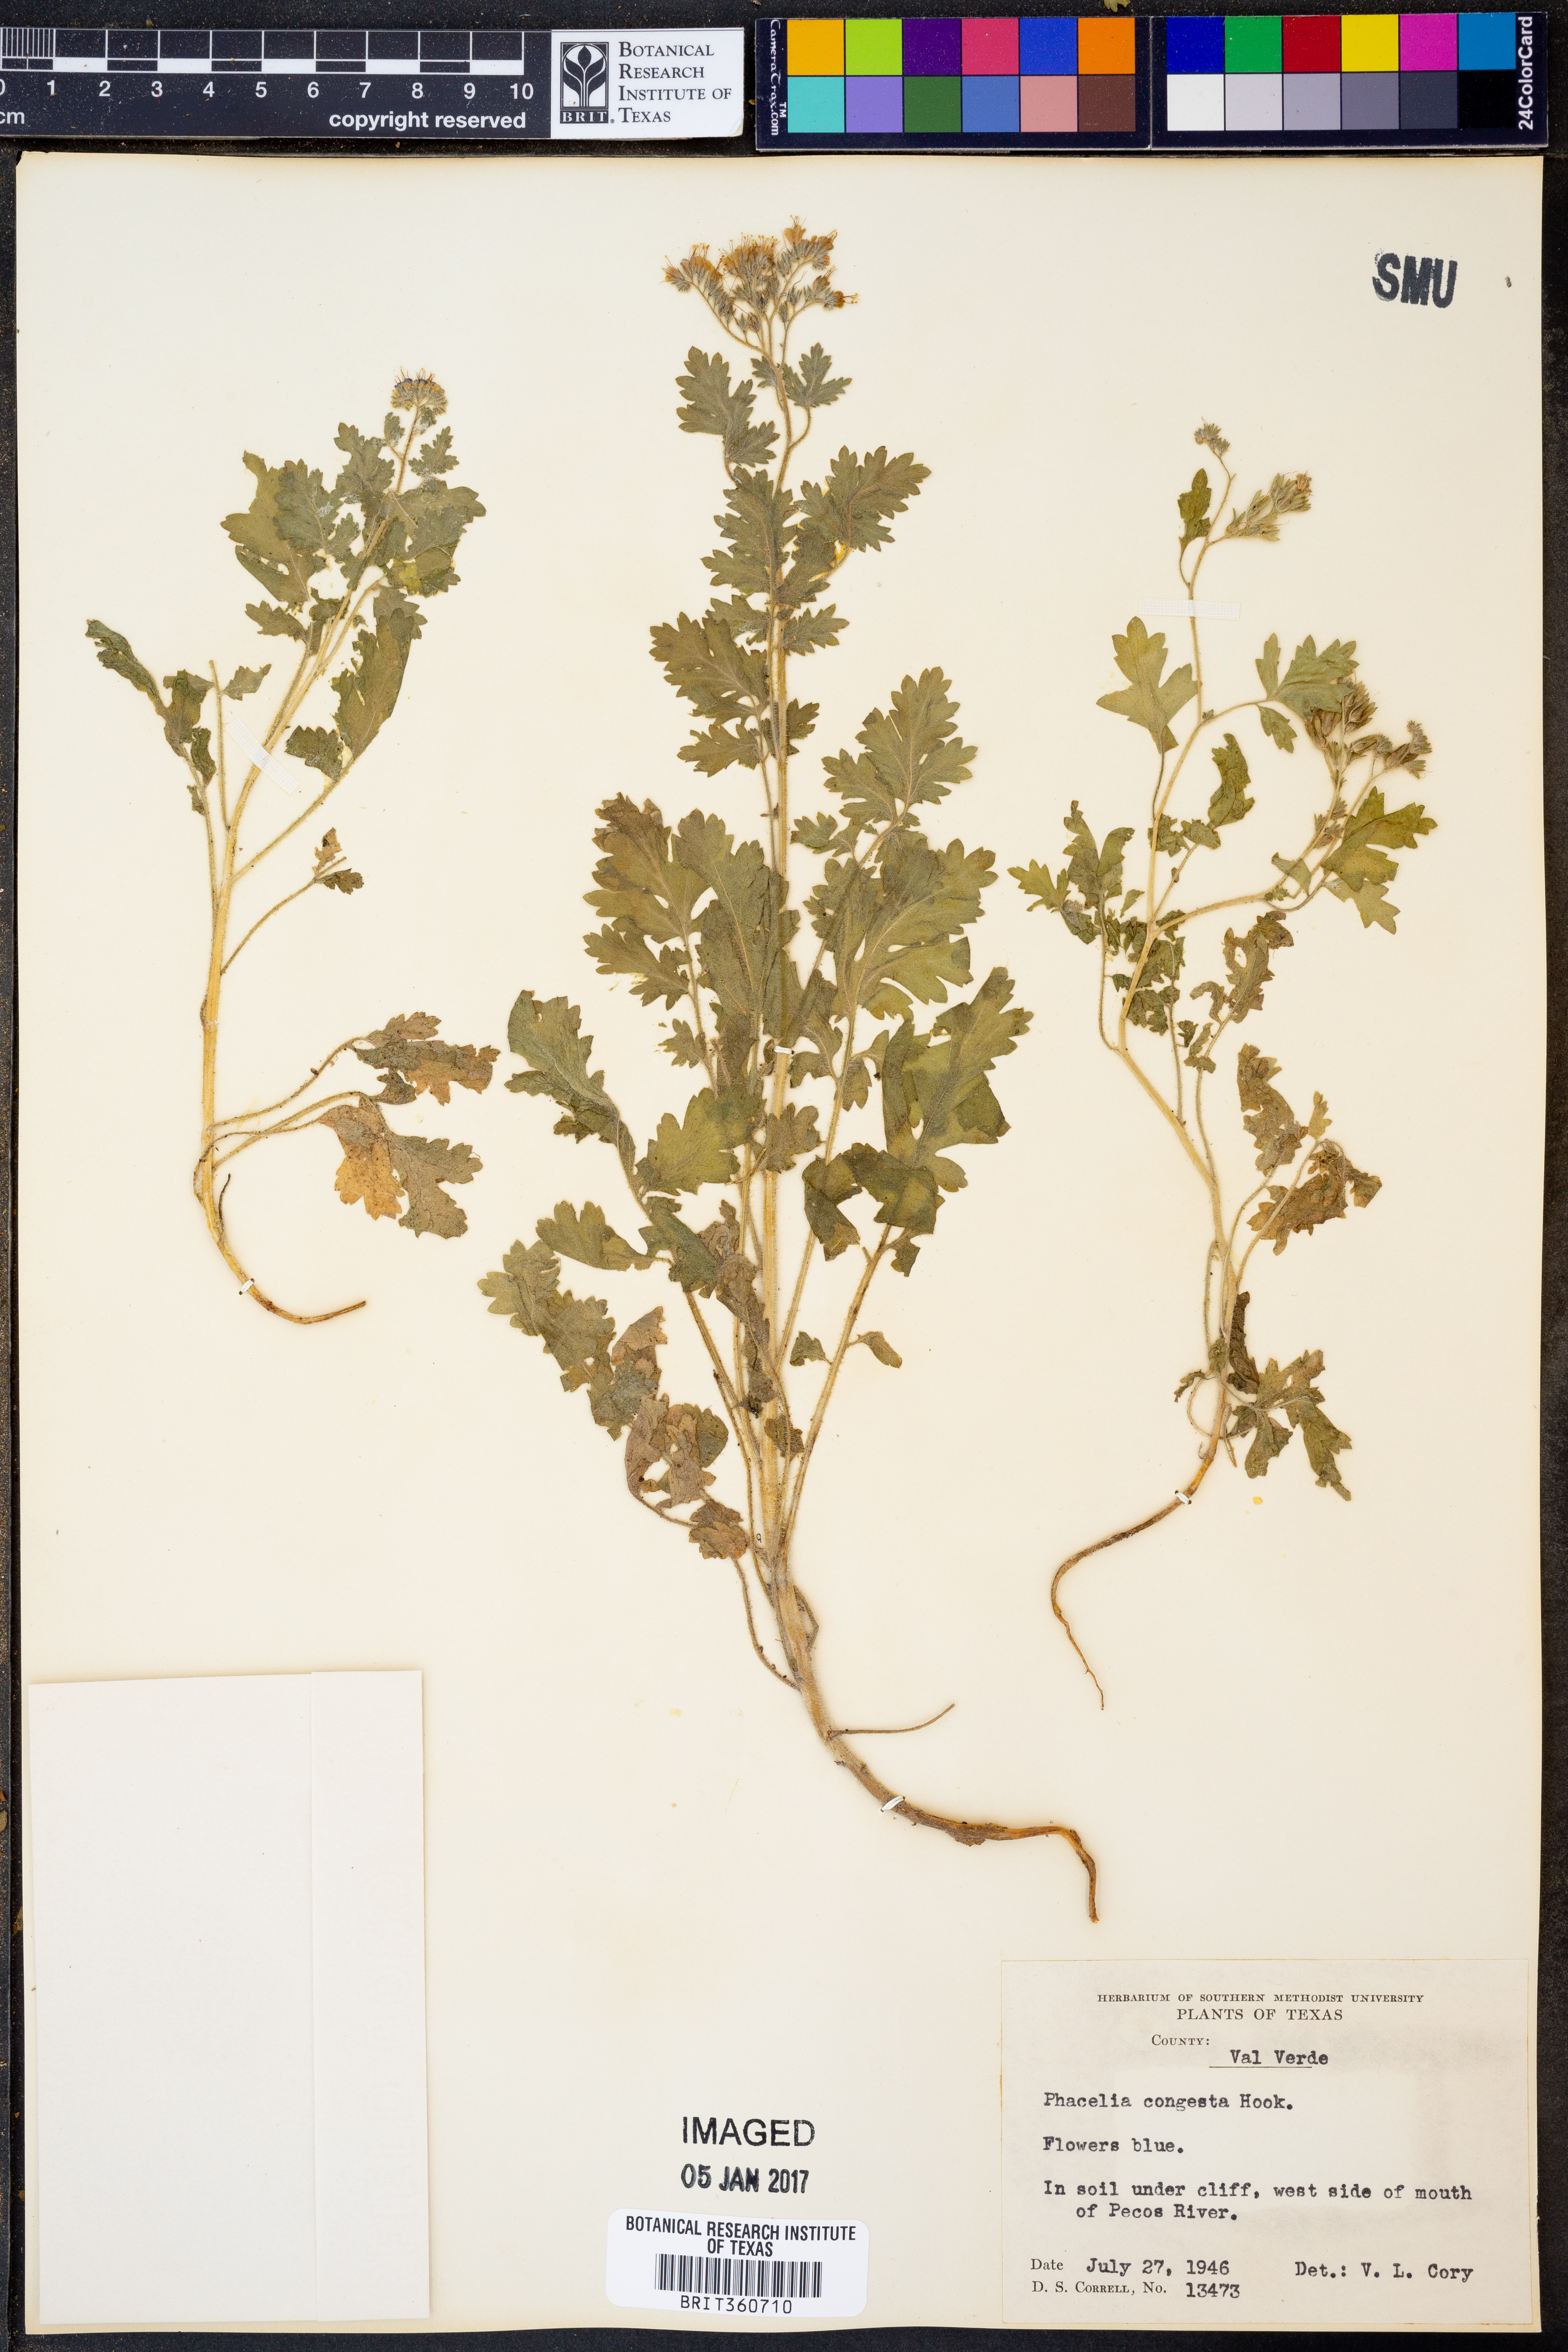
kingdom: Plantae
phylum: Tracheophyta
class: Magnoliopsida
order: Boraginales
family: Hydrophyllaceae
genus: Phacelia
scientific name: Phacelia congesta
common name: Blue curls
